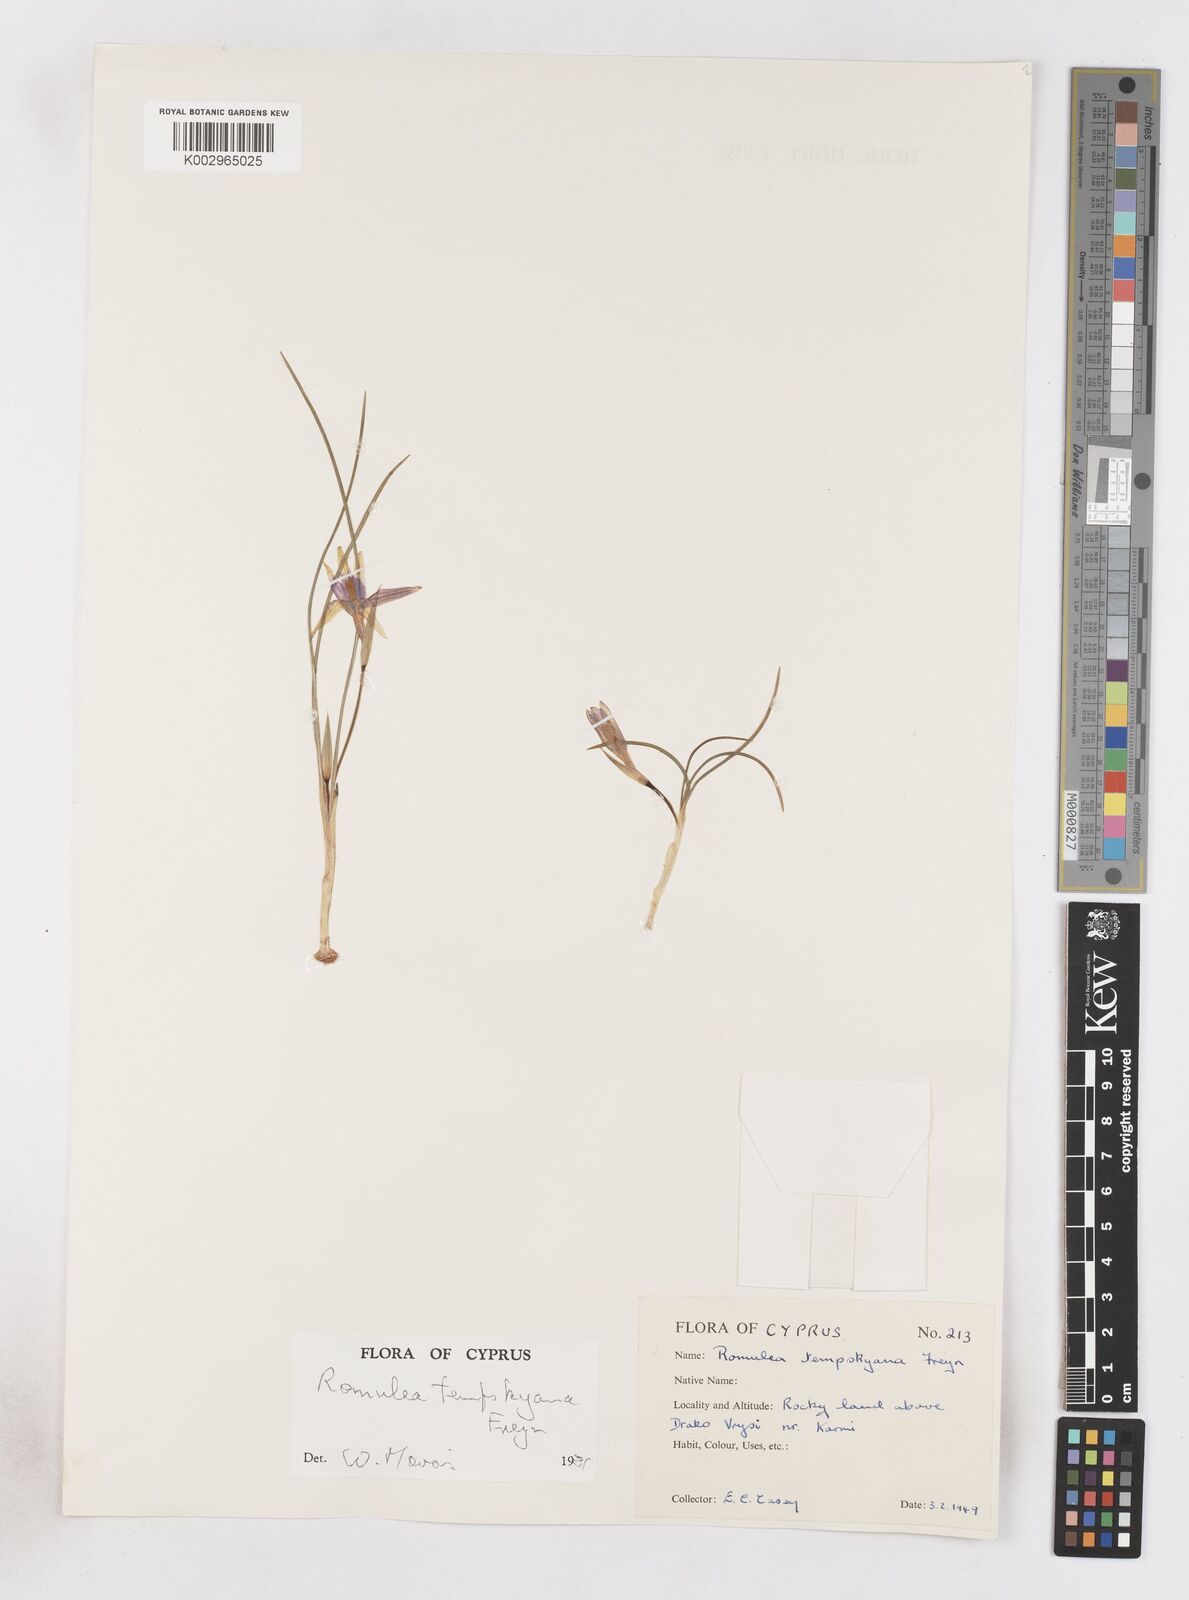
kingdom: Plantae
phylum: Tracheophyta
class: Liliopsida
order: Asparagales
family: Iridaceae
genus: Romulea
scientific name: Romulea tempskyana
